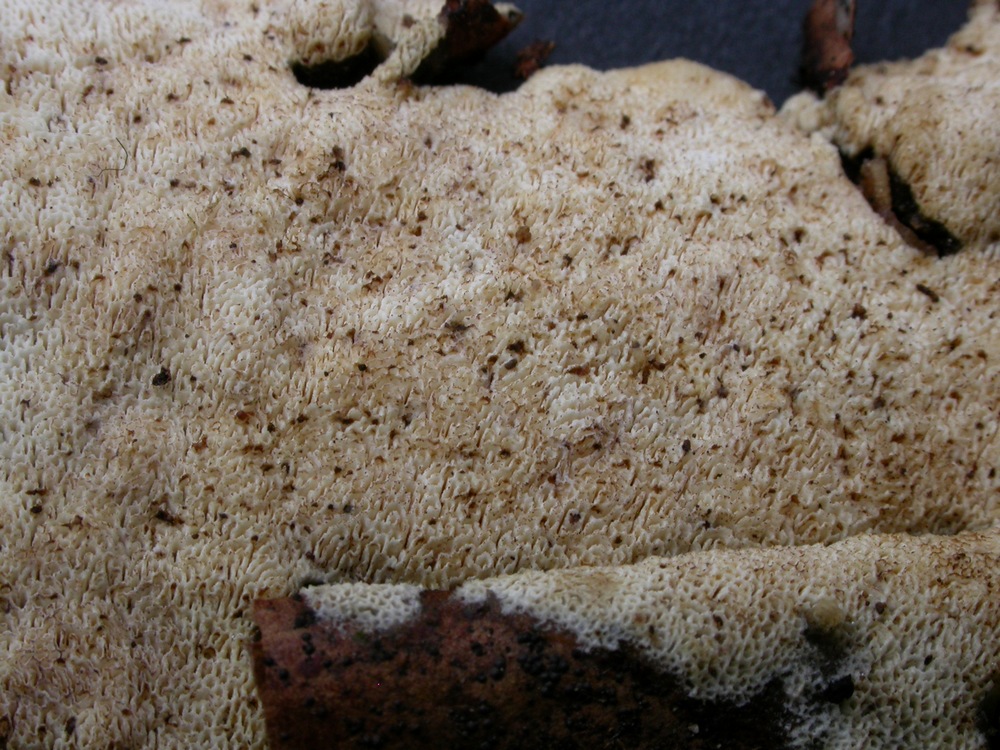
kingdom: Fungi
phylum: Basidiomycota
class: Agaricomycetes
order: Hymenochaetales
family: Schizoporaceae
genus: Schizopora
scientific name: Schizopora paradoxa
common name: hvid tandsvamp
